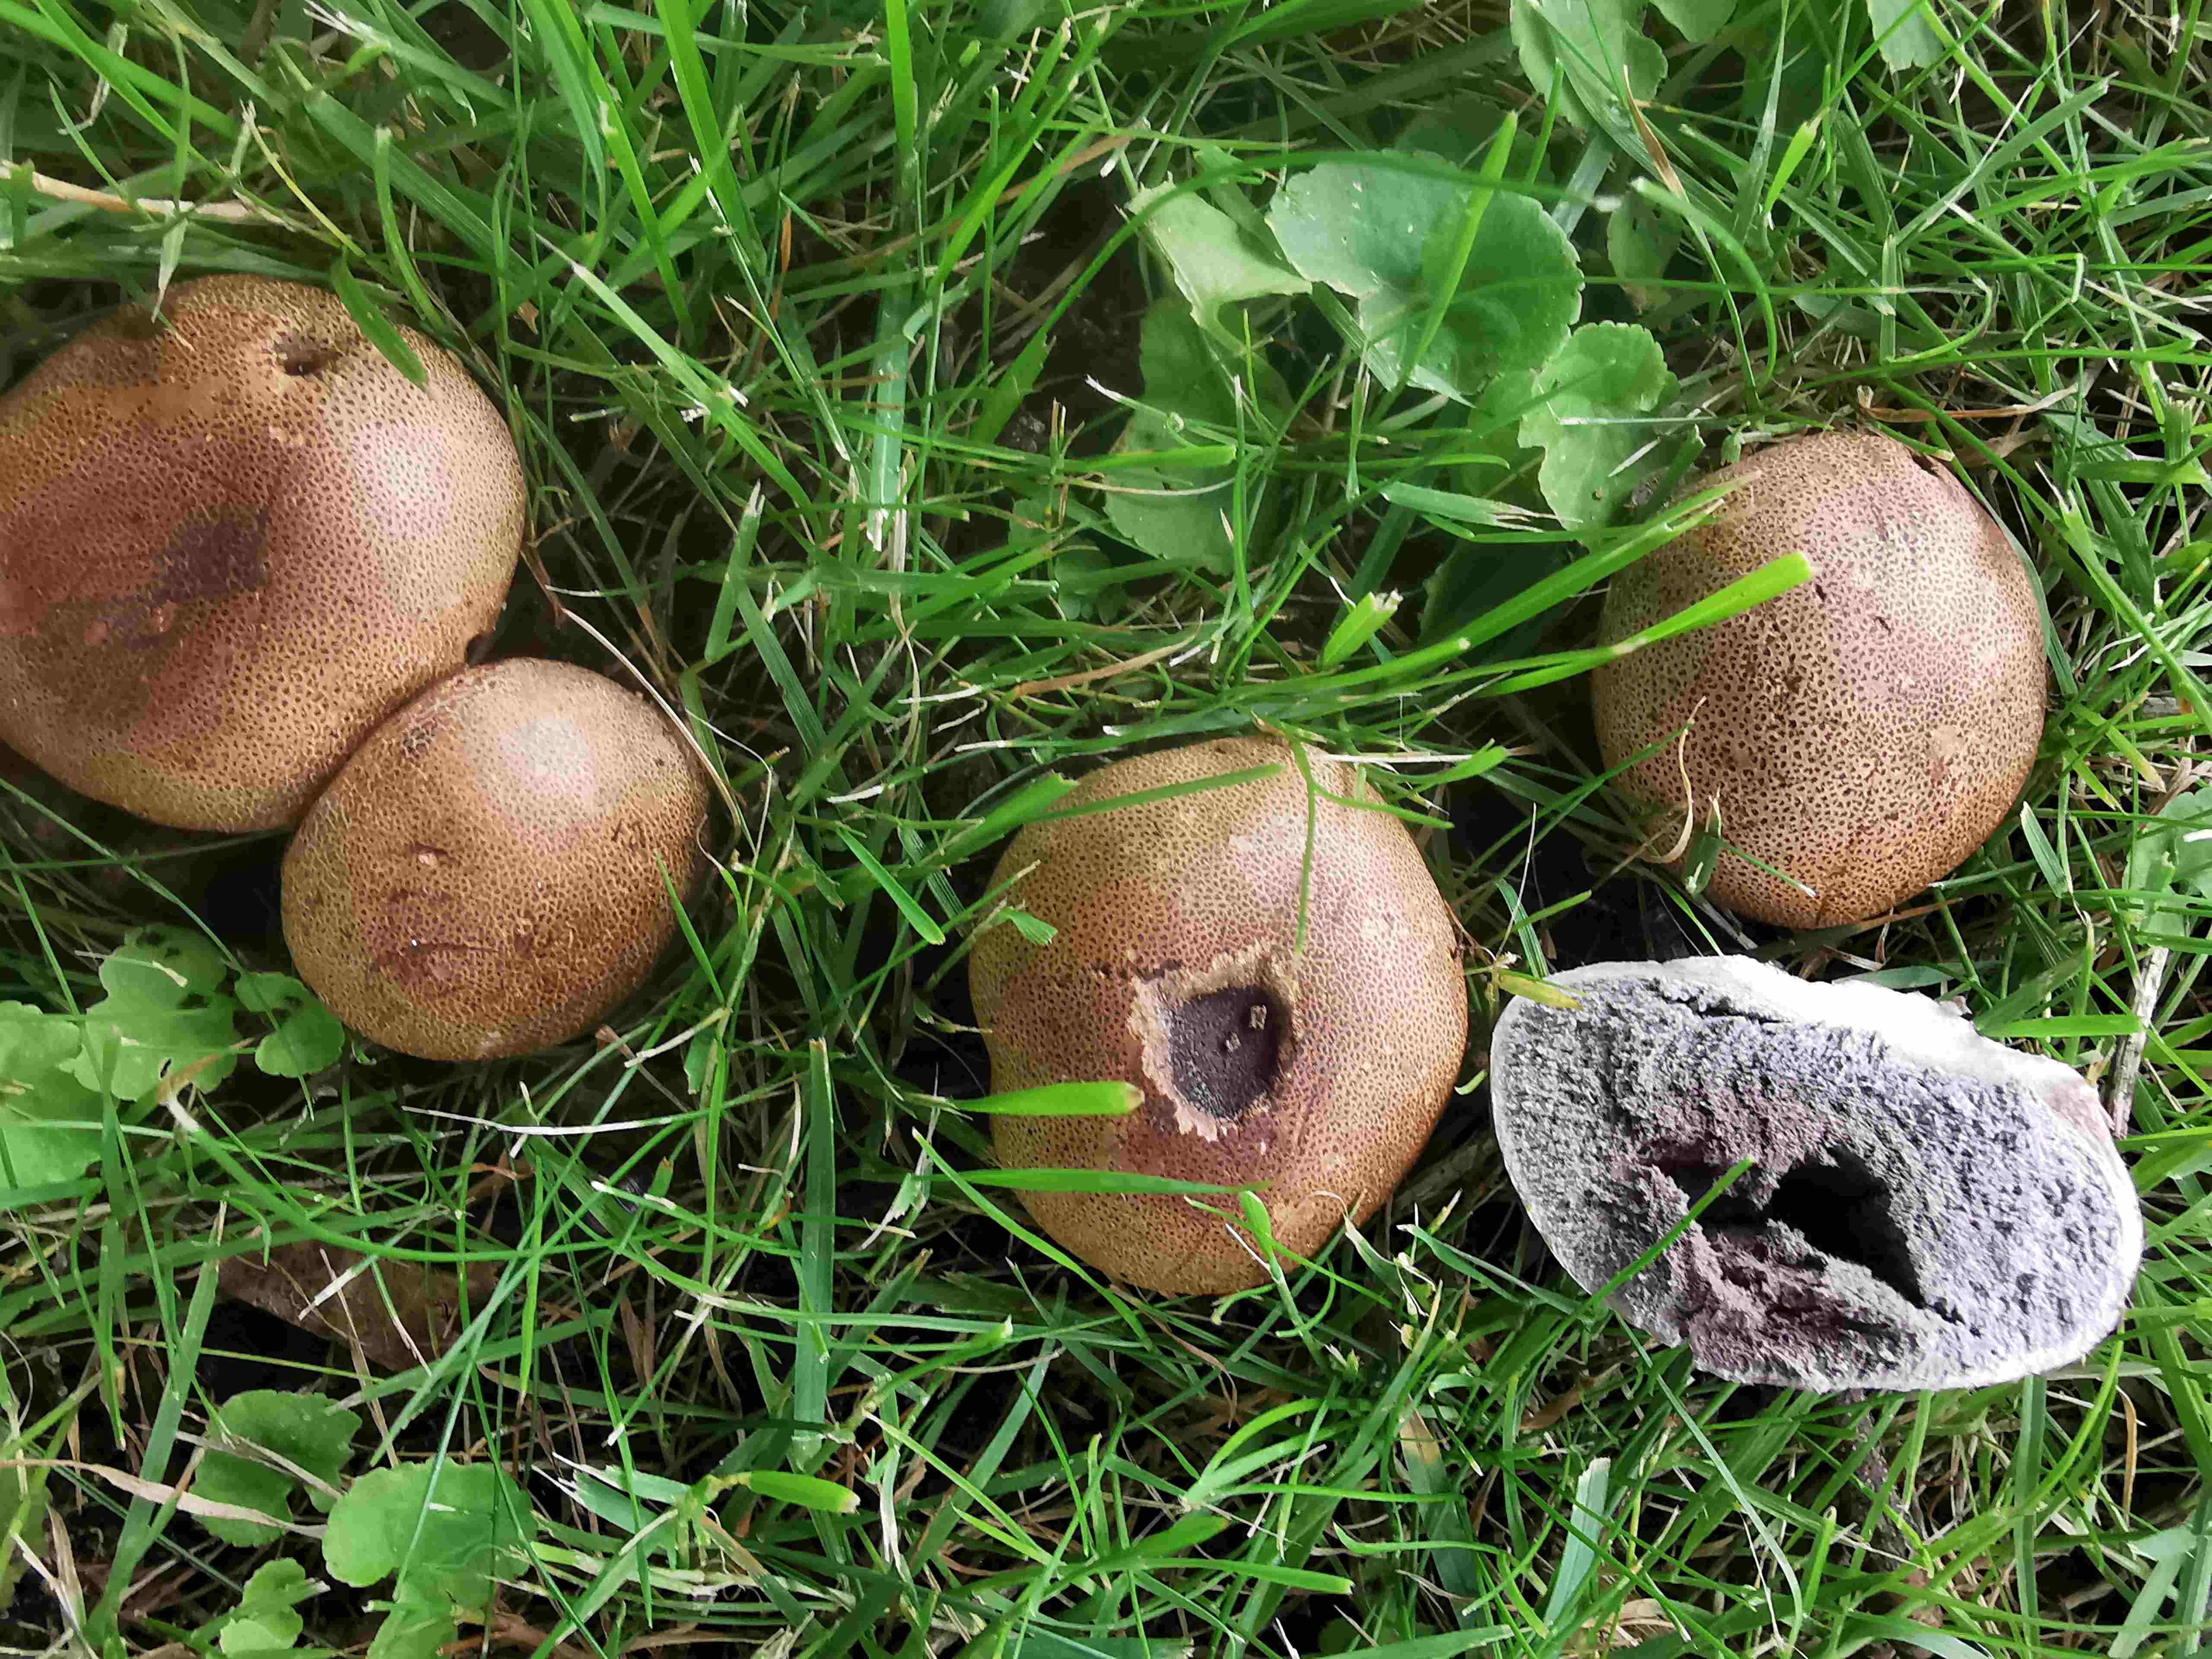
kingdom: Fungi
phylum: Basidiomycota
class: Agaricomycetes
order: Boletales
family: Sclerodermataceae
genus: Scleroderma
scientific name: Scleroderma areolatum
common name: plettet bruskbold
